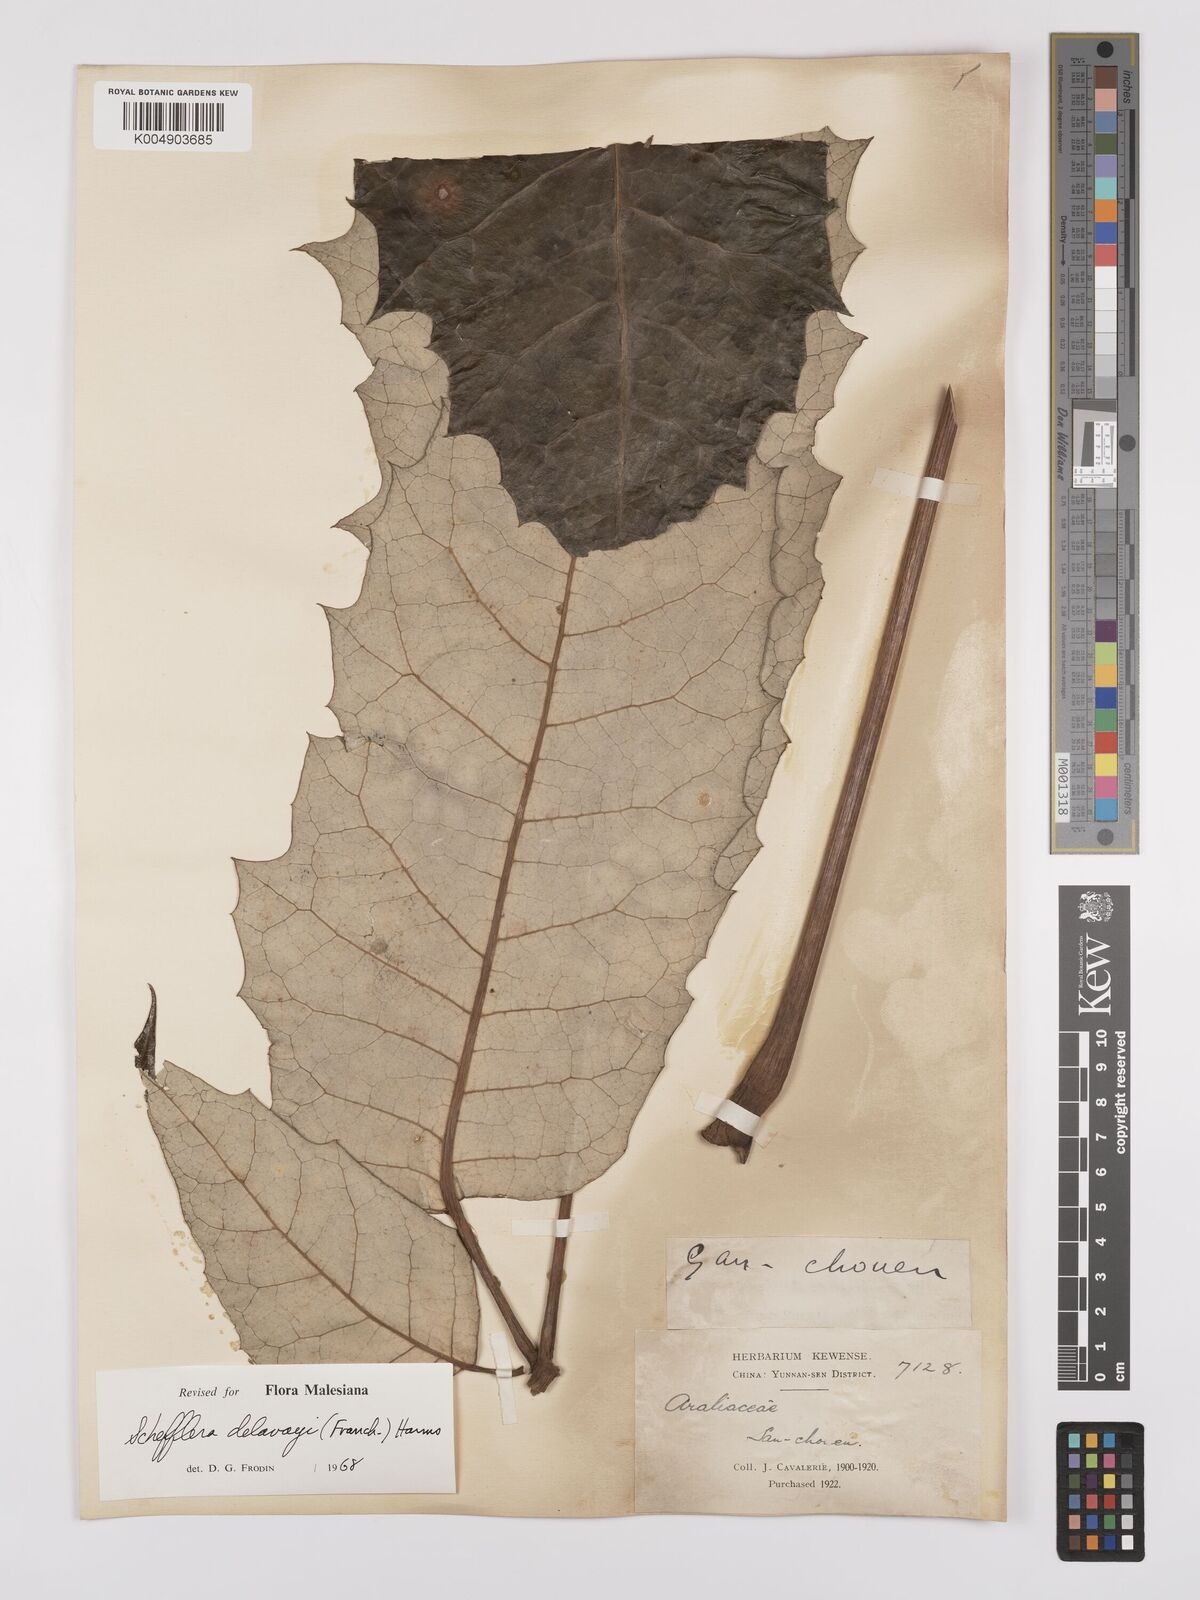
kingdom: Plantae
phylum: Tracheophyta
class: Magnoliopsida
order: Apiales
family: Araliaceae
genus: Heptapleurum
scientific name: Heptapleurum delavayi
